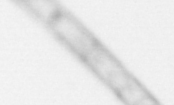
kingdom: Chromista
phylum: Ochrophyta
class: Bacillariophyceae
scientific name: Bacillariophyceae
